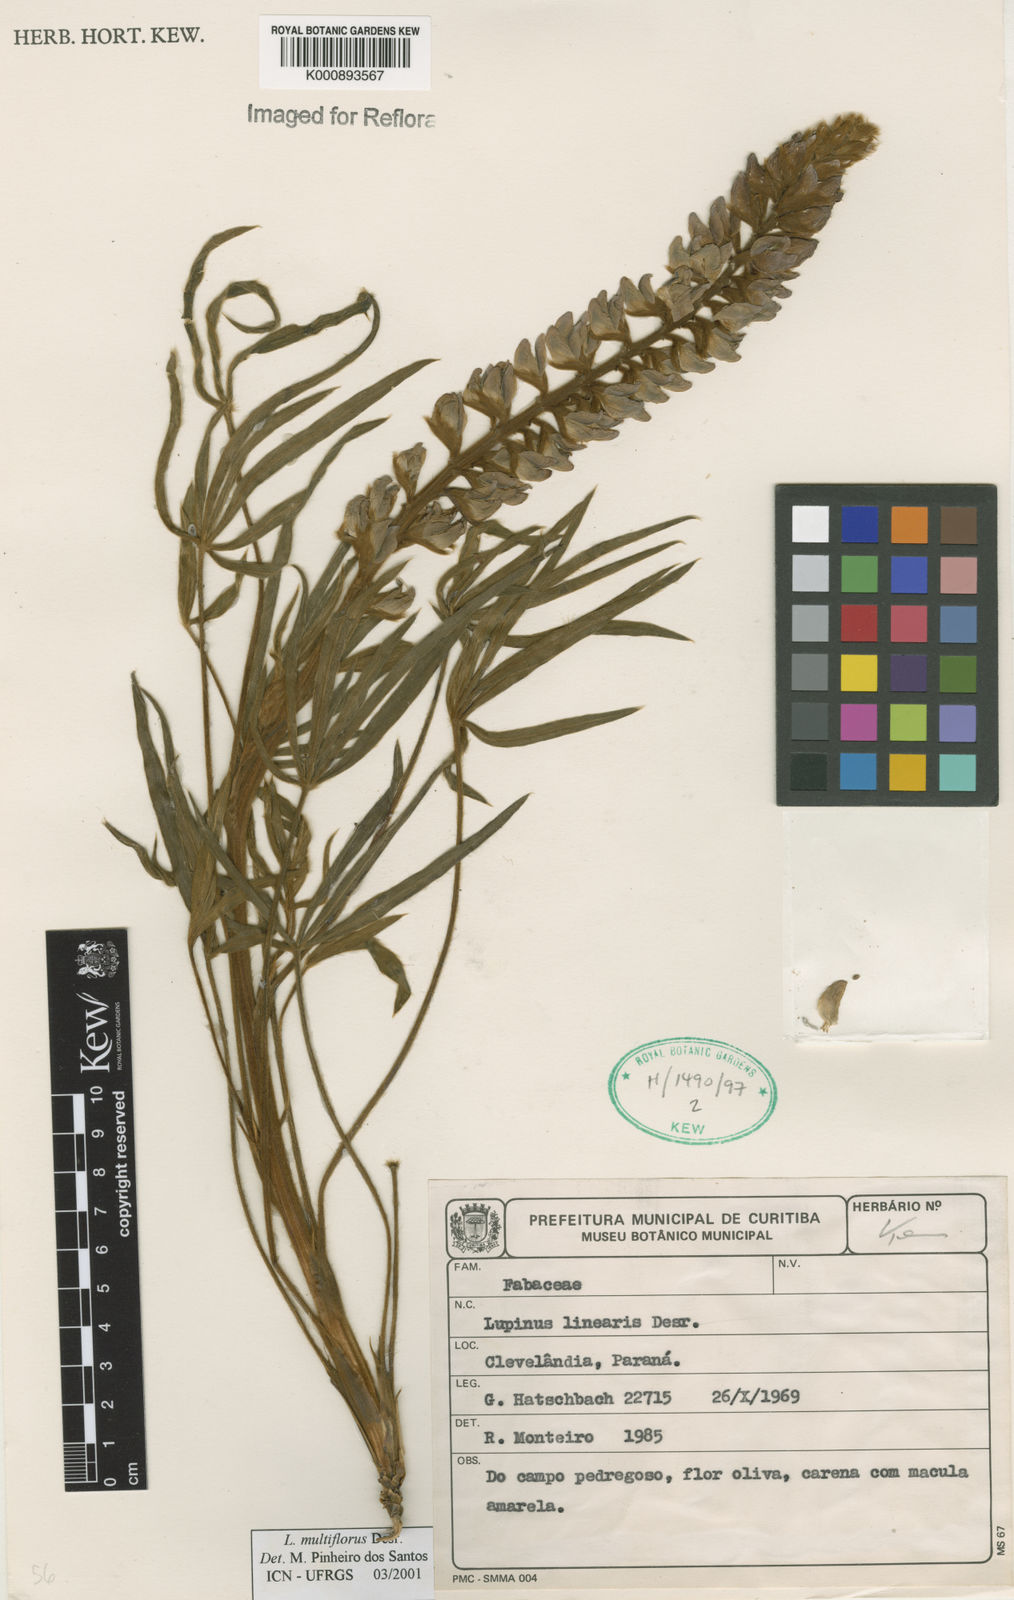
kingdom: Plantae
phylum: Tracheophyta
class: Magnoliopsida
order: Fabales
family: Fabaceae
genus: Lupinus
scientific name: Lupinus multiflorus
